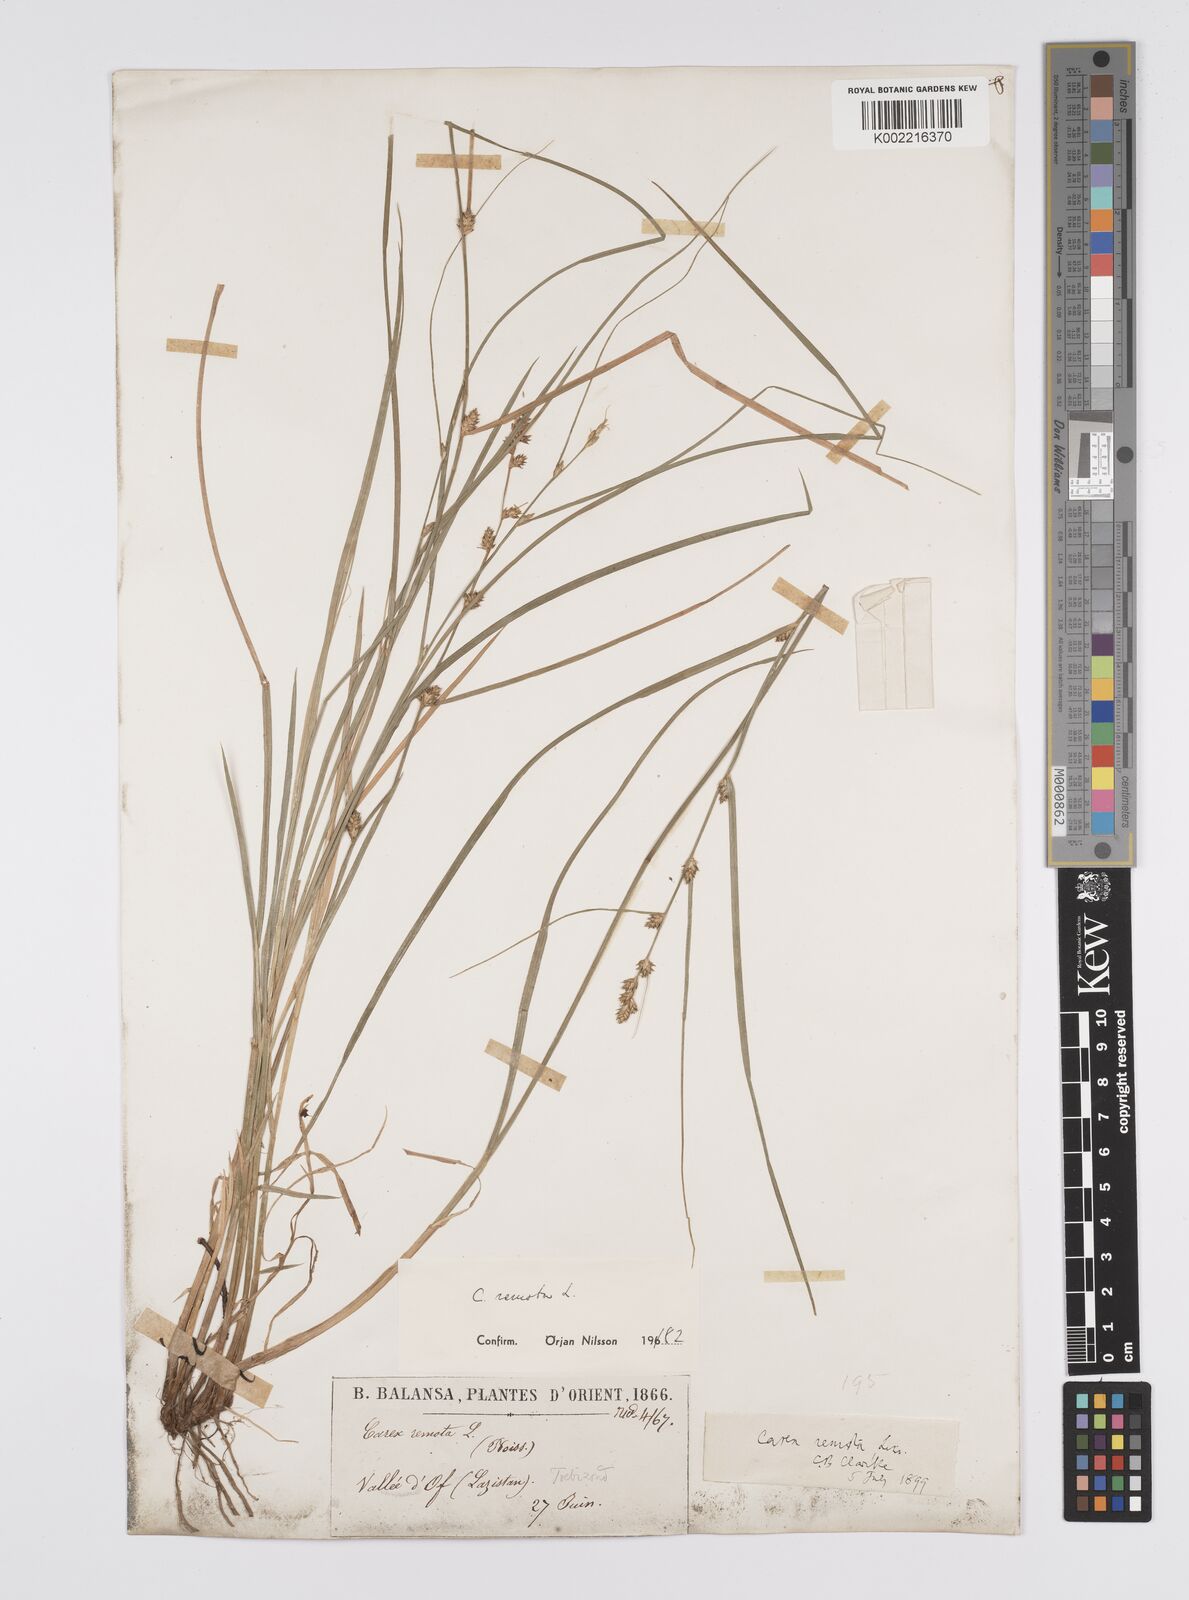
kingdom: Plantae
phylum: Tracheophyta
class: Liliopsida
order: Poales
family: Cyperaceae
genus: Carex
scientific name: Carex remota
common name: Remote sedge
